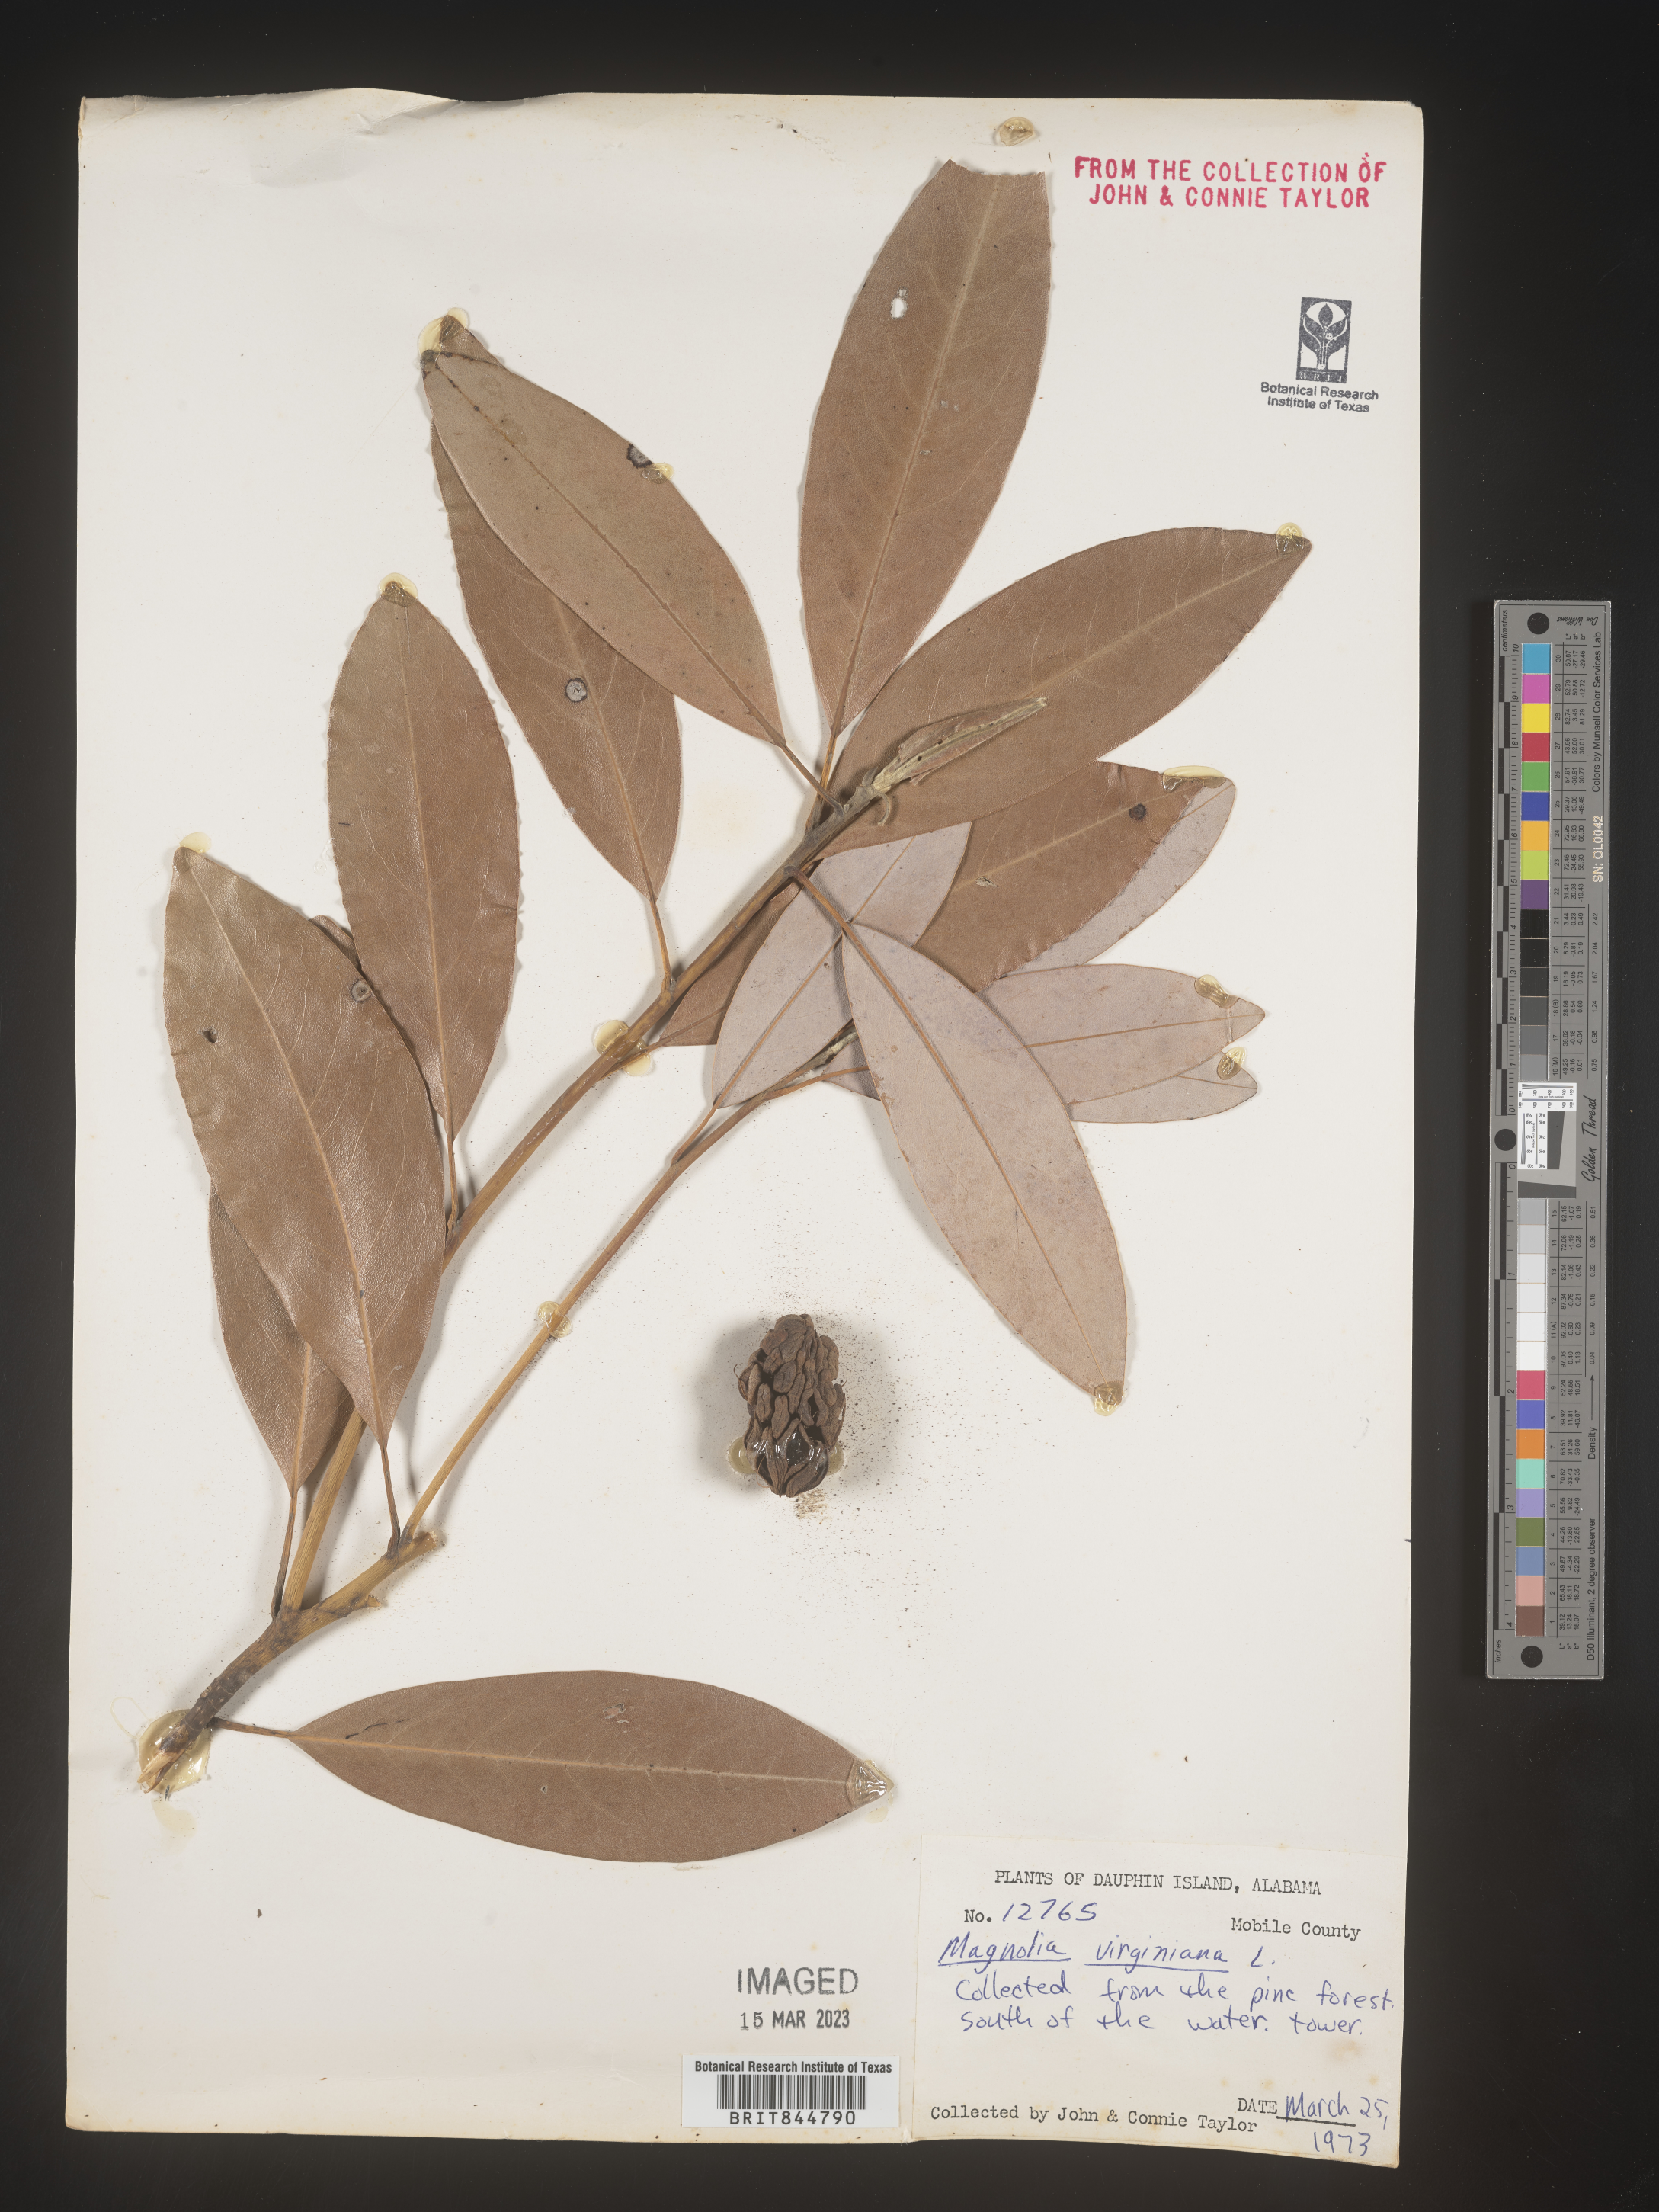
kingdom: Plantae
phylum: Tracheophyta
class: Magnoliopsida
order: Magnoliales
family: Magnoliaceae
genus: Magnolia
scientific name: Magnolia virginiana
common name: Swamp bay
